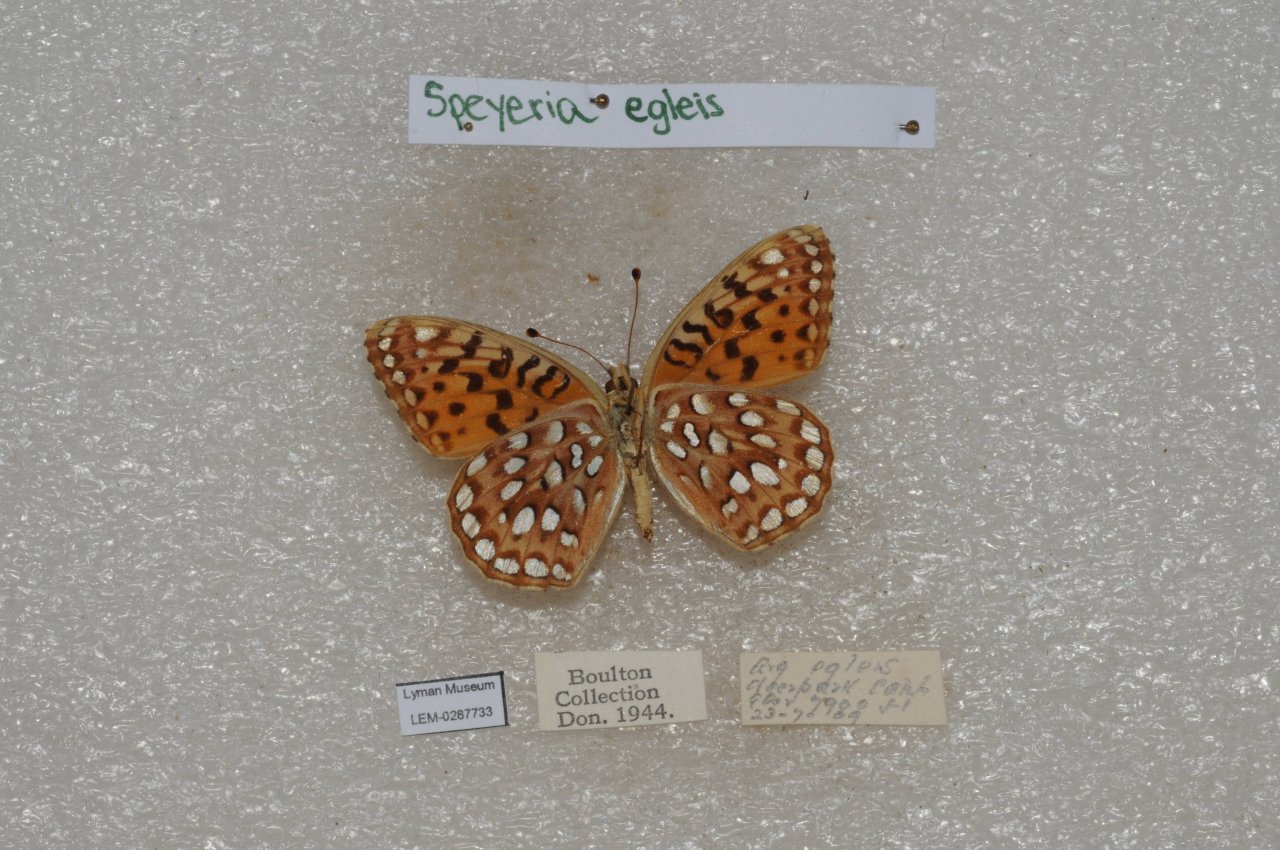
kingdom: Animalia
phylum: Arthropoda
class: Insecta
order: Lepidoptera
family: Nymphalidae
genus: Speyeria
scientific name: Speyeria egleis
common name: Great Basin Fritillary
